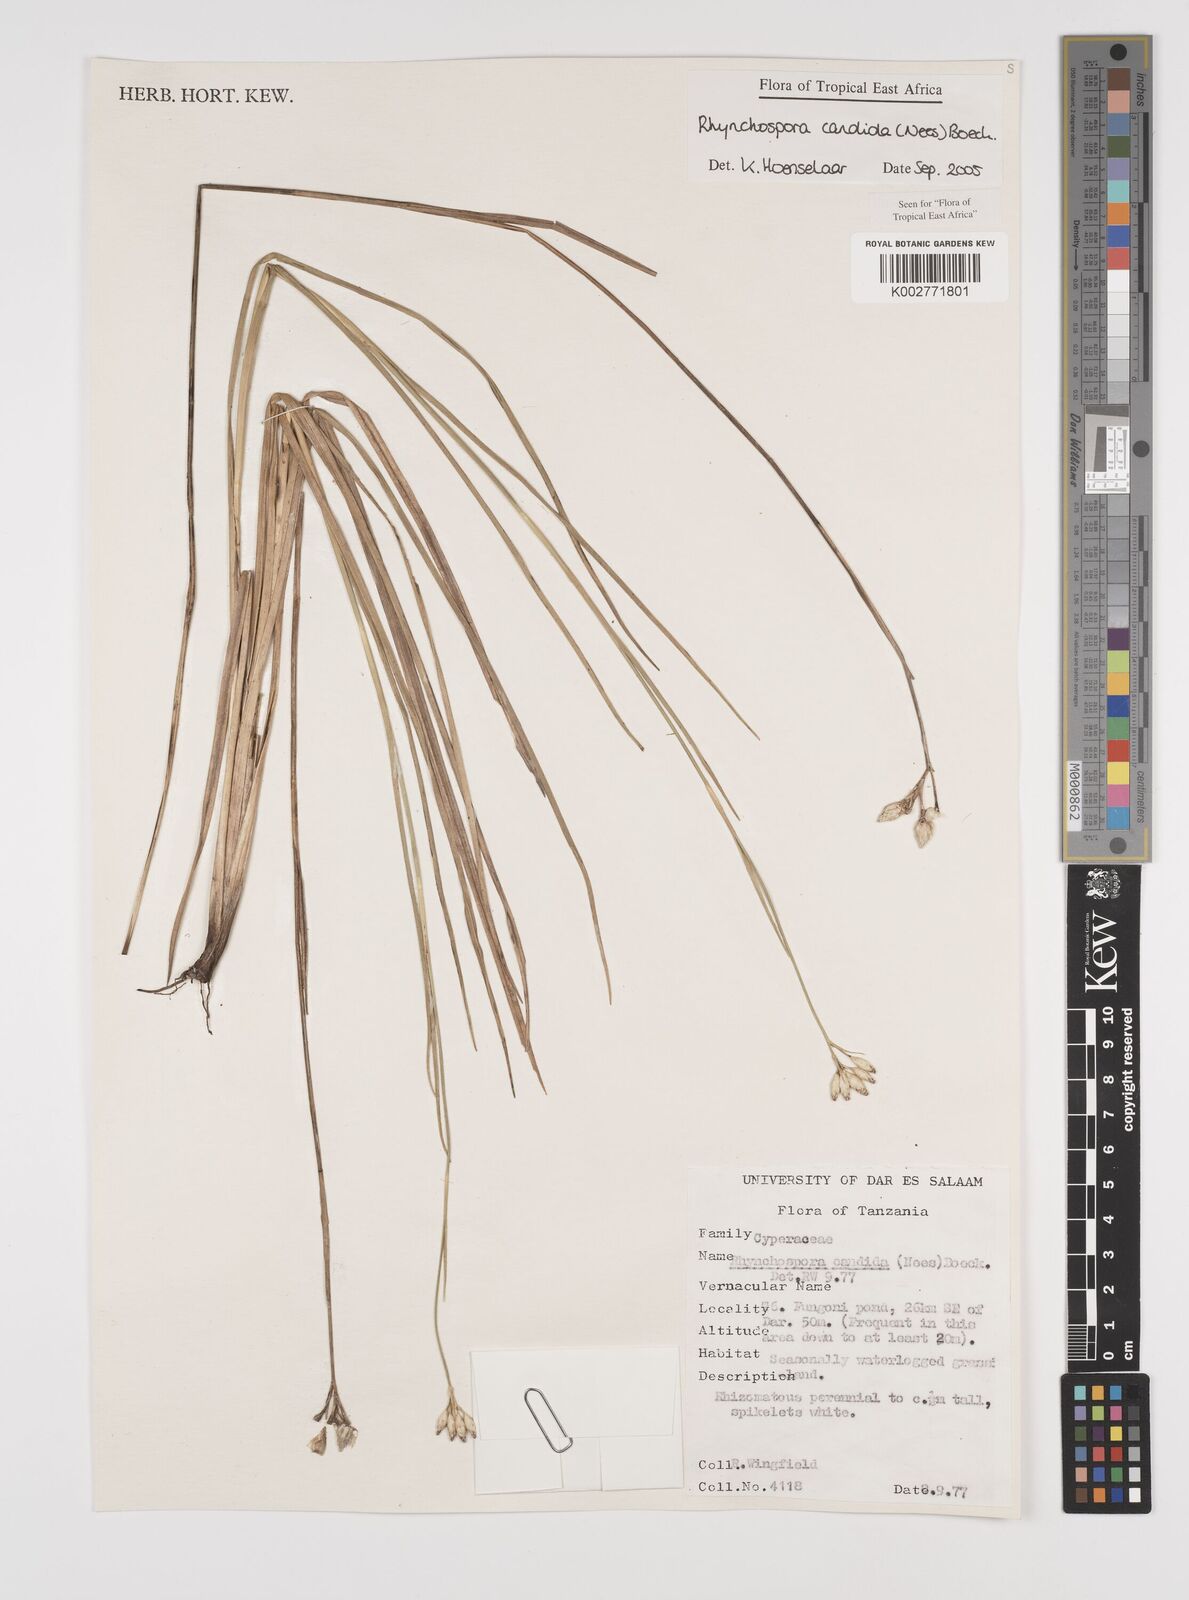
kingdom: Plantae
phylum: Tracheophyta
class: Liliopsida
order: Poales
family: Cyperaceae
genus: Rhynchospora
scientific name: Rhynchospora candida
